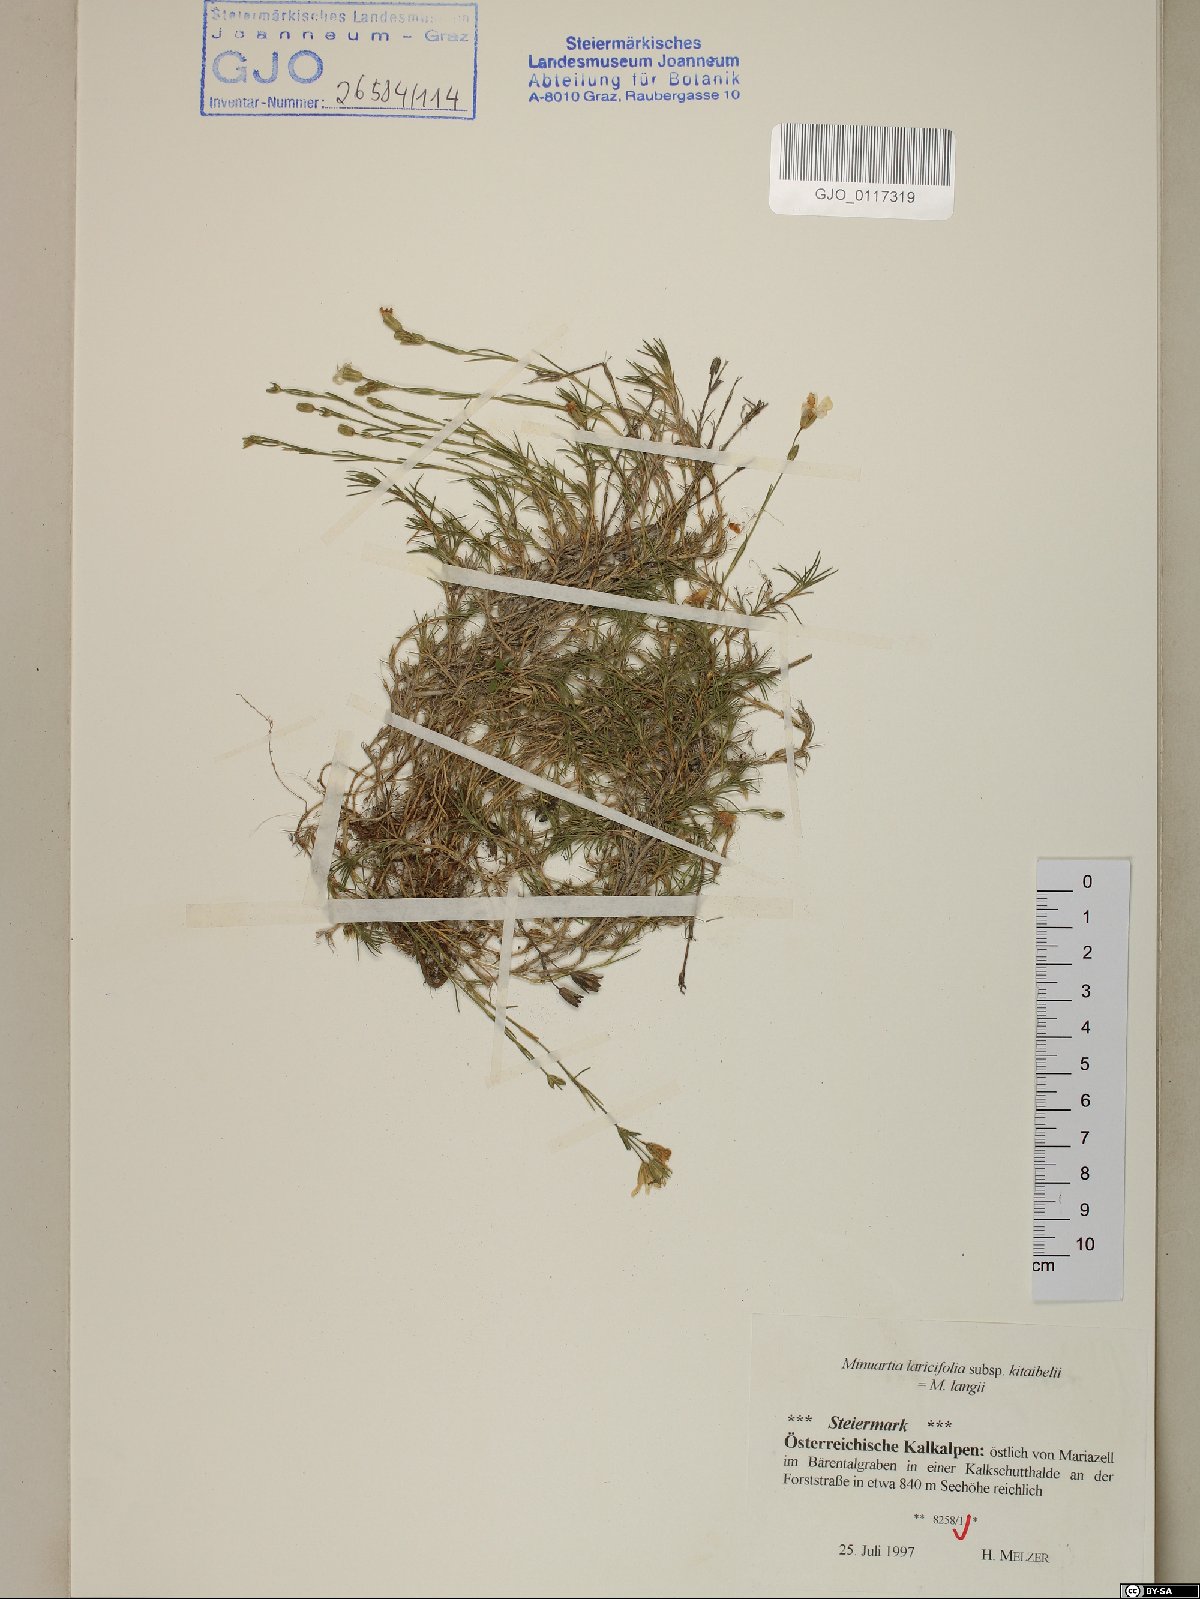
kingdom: Plantae
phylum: Tracheophyta
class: Magnoliopsida
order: Caryophyllales
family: Caryophyllaceae
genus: Cherleria
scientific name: Cherleria langii
